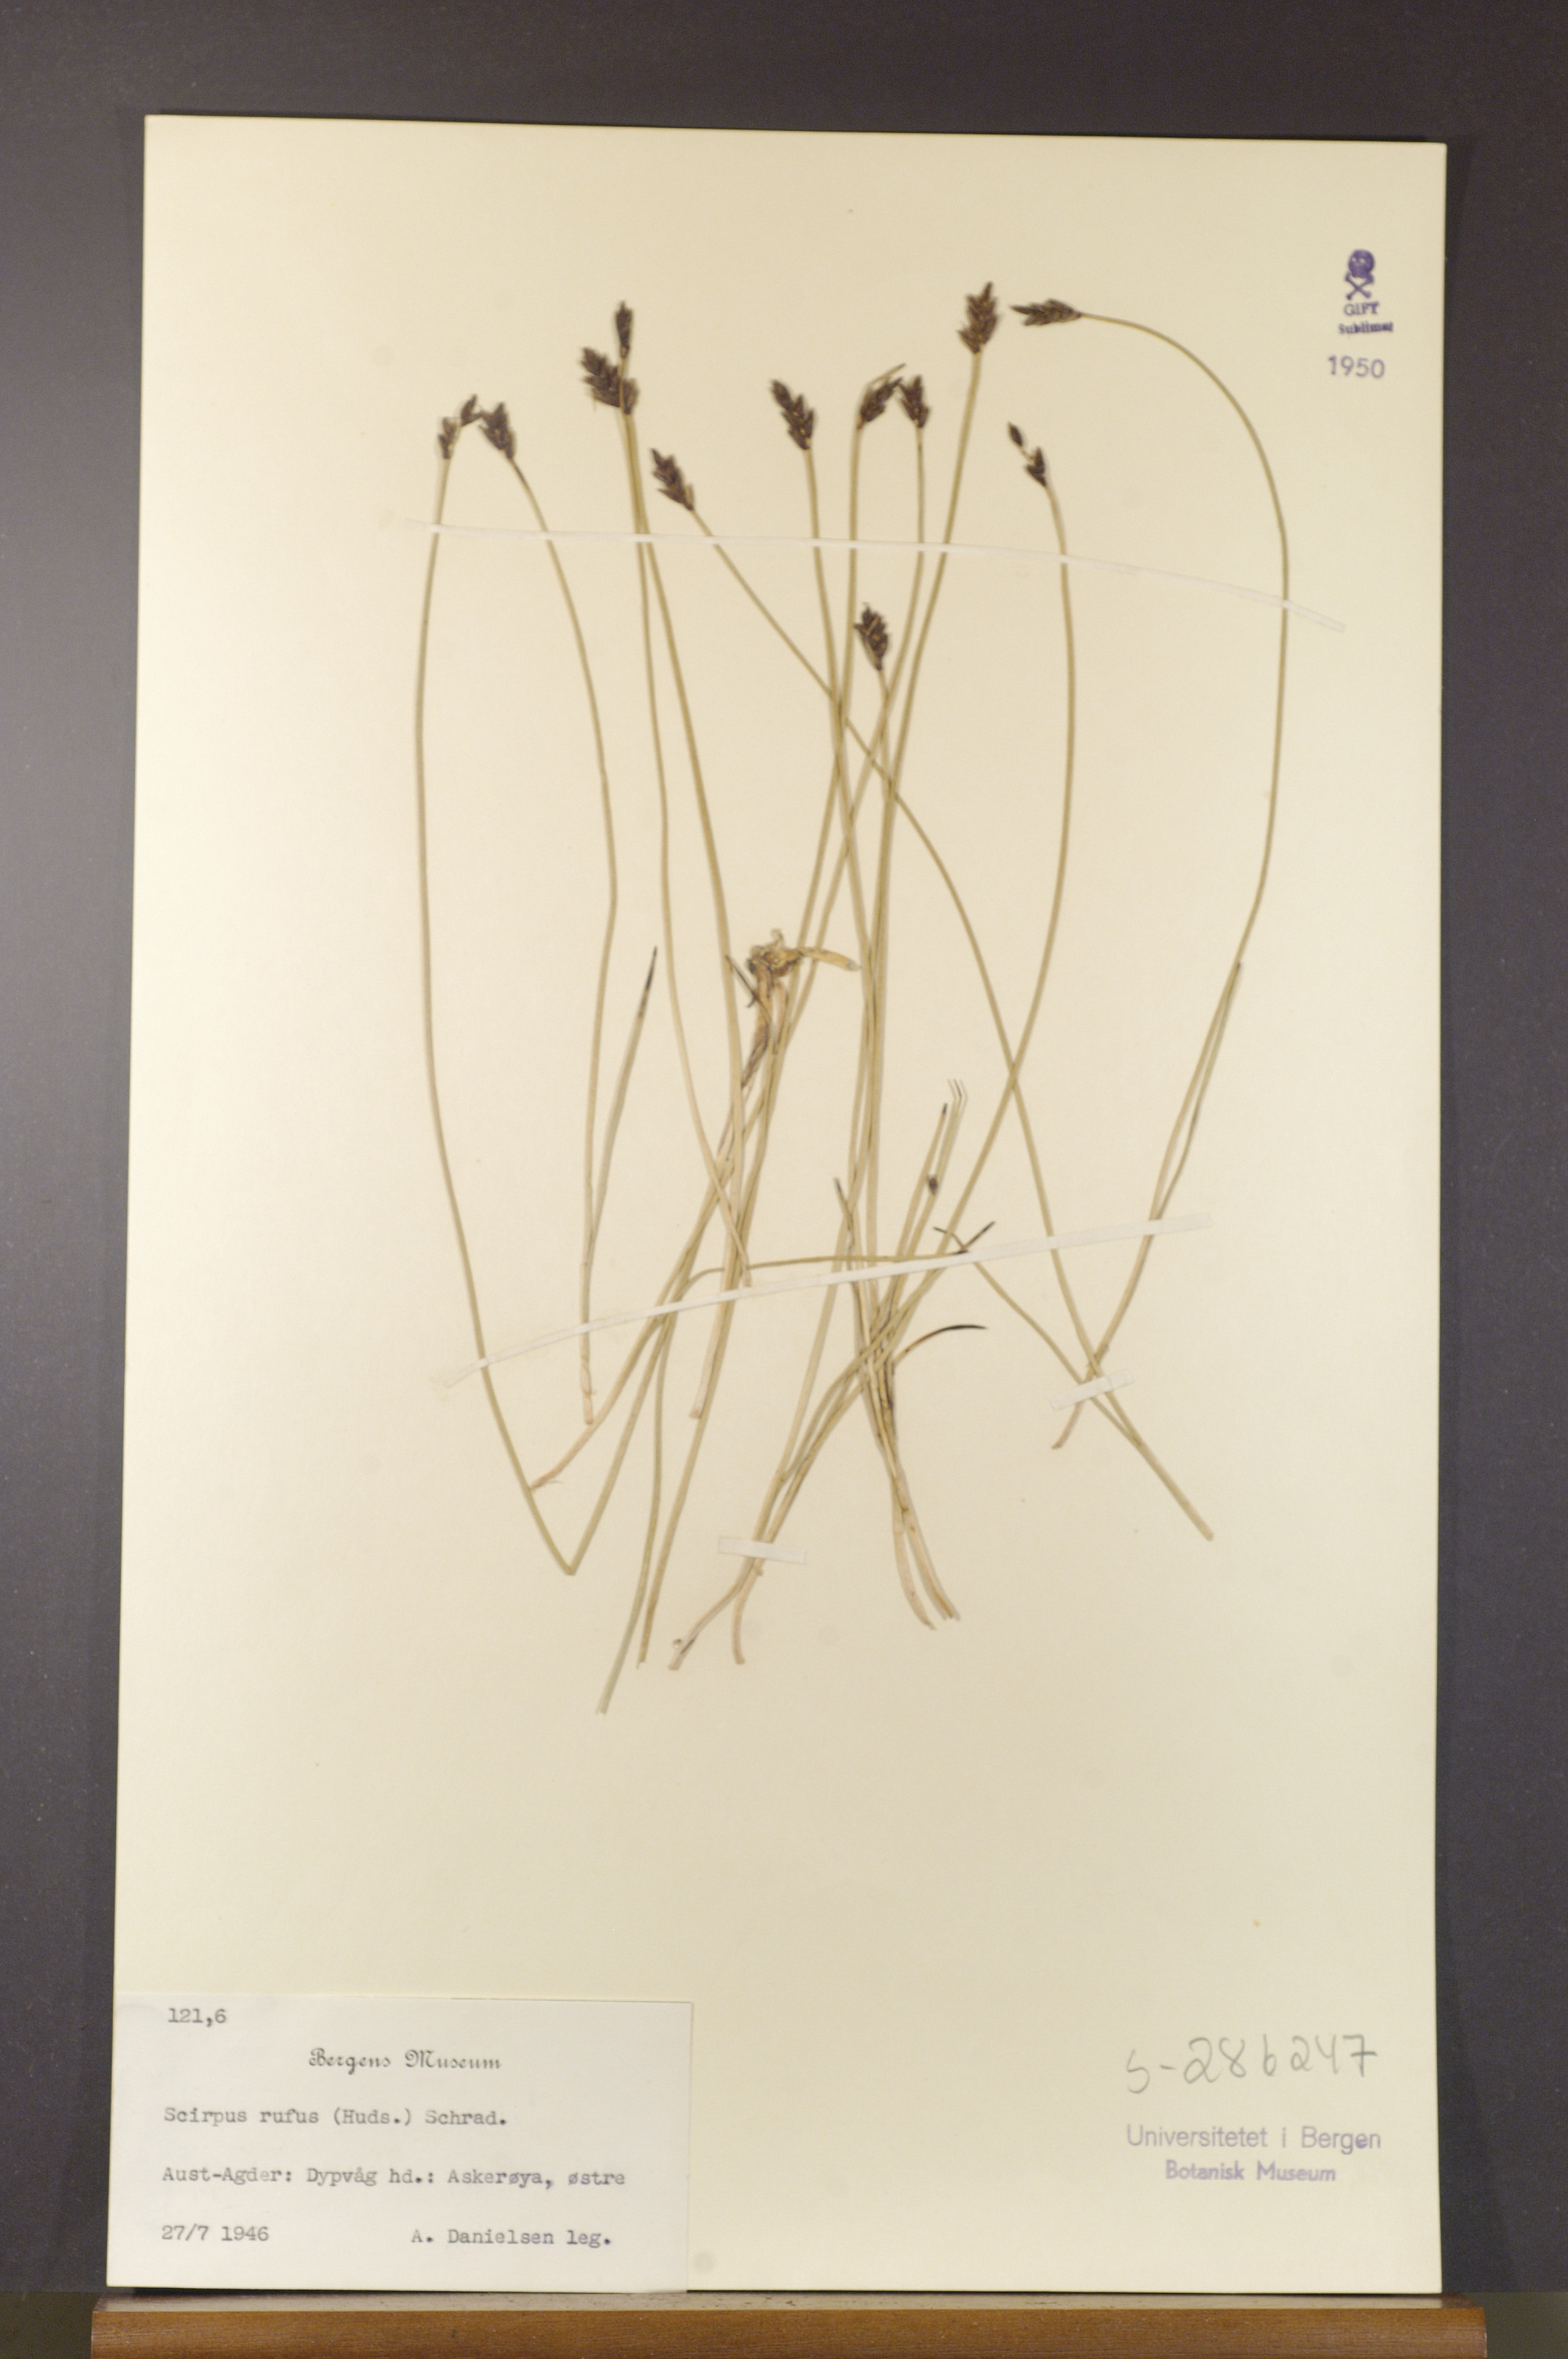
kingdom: Plantae
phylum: Tracheophyta
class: Liliopsida
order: Poales
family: Cyperaceae
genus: Blysmus
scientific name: Blysmus rufus
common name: Saltmarsh flat-sedge
